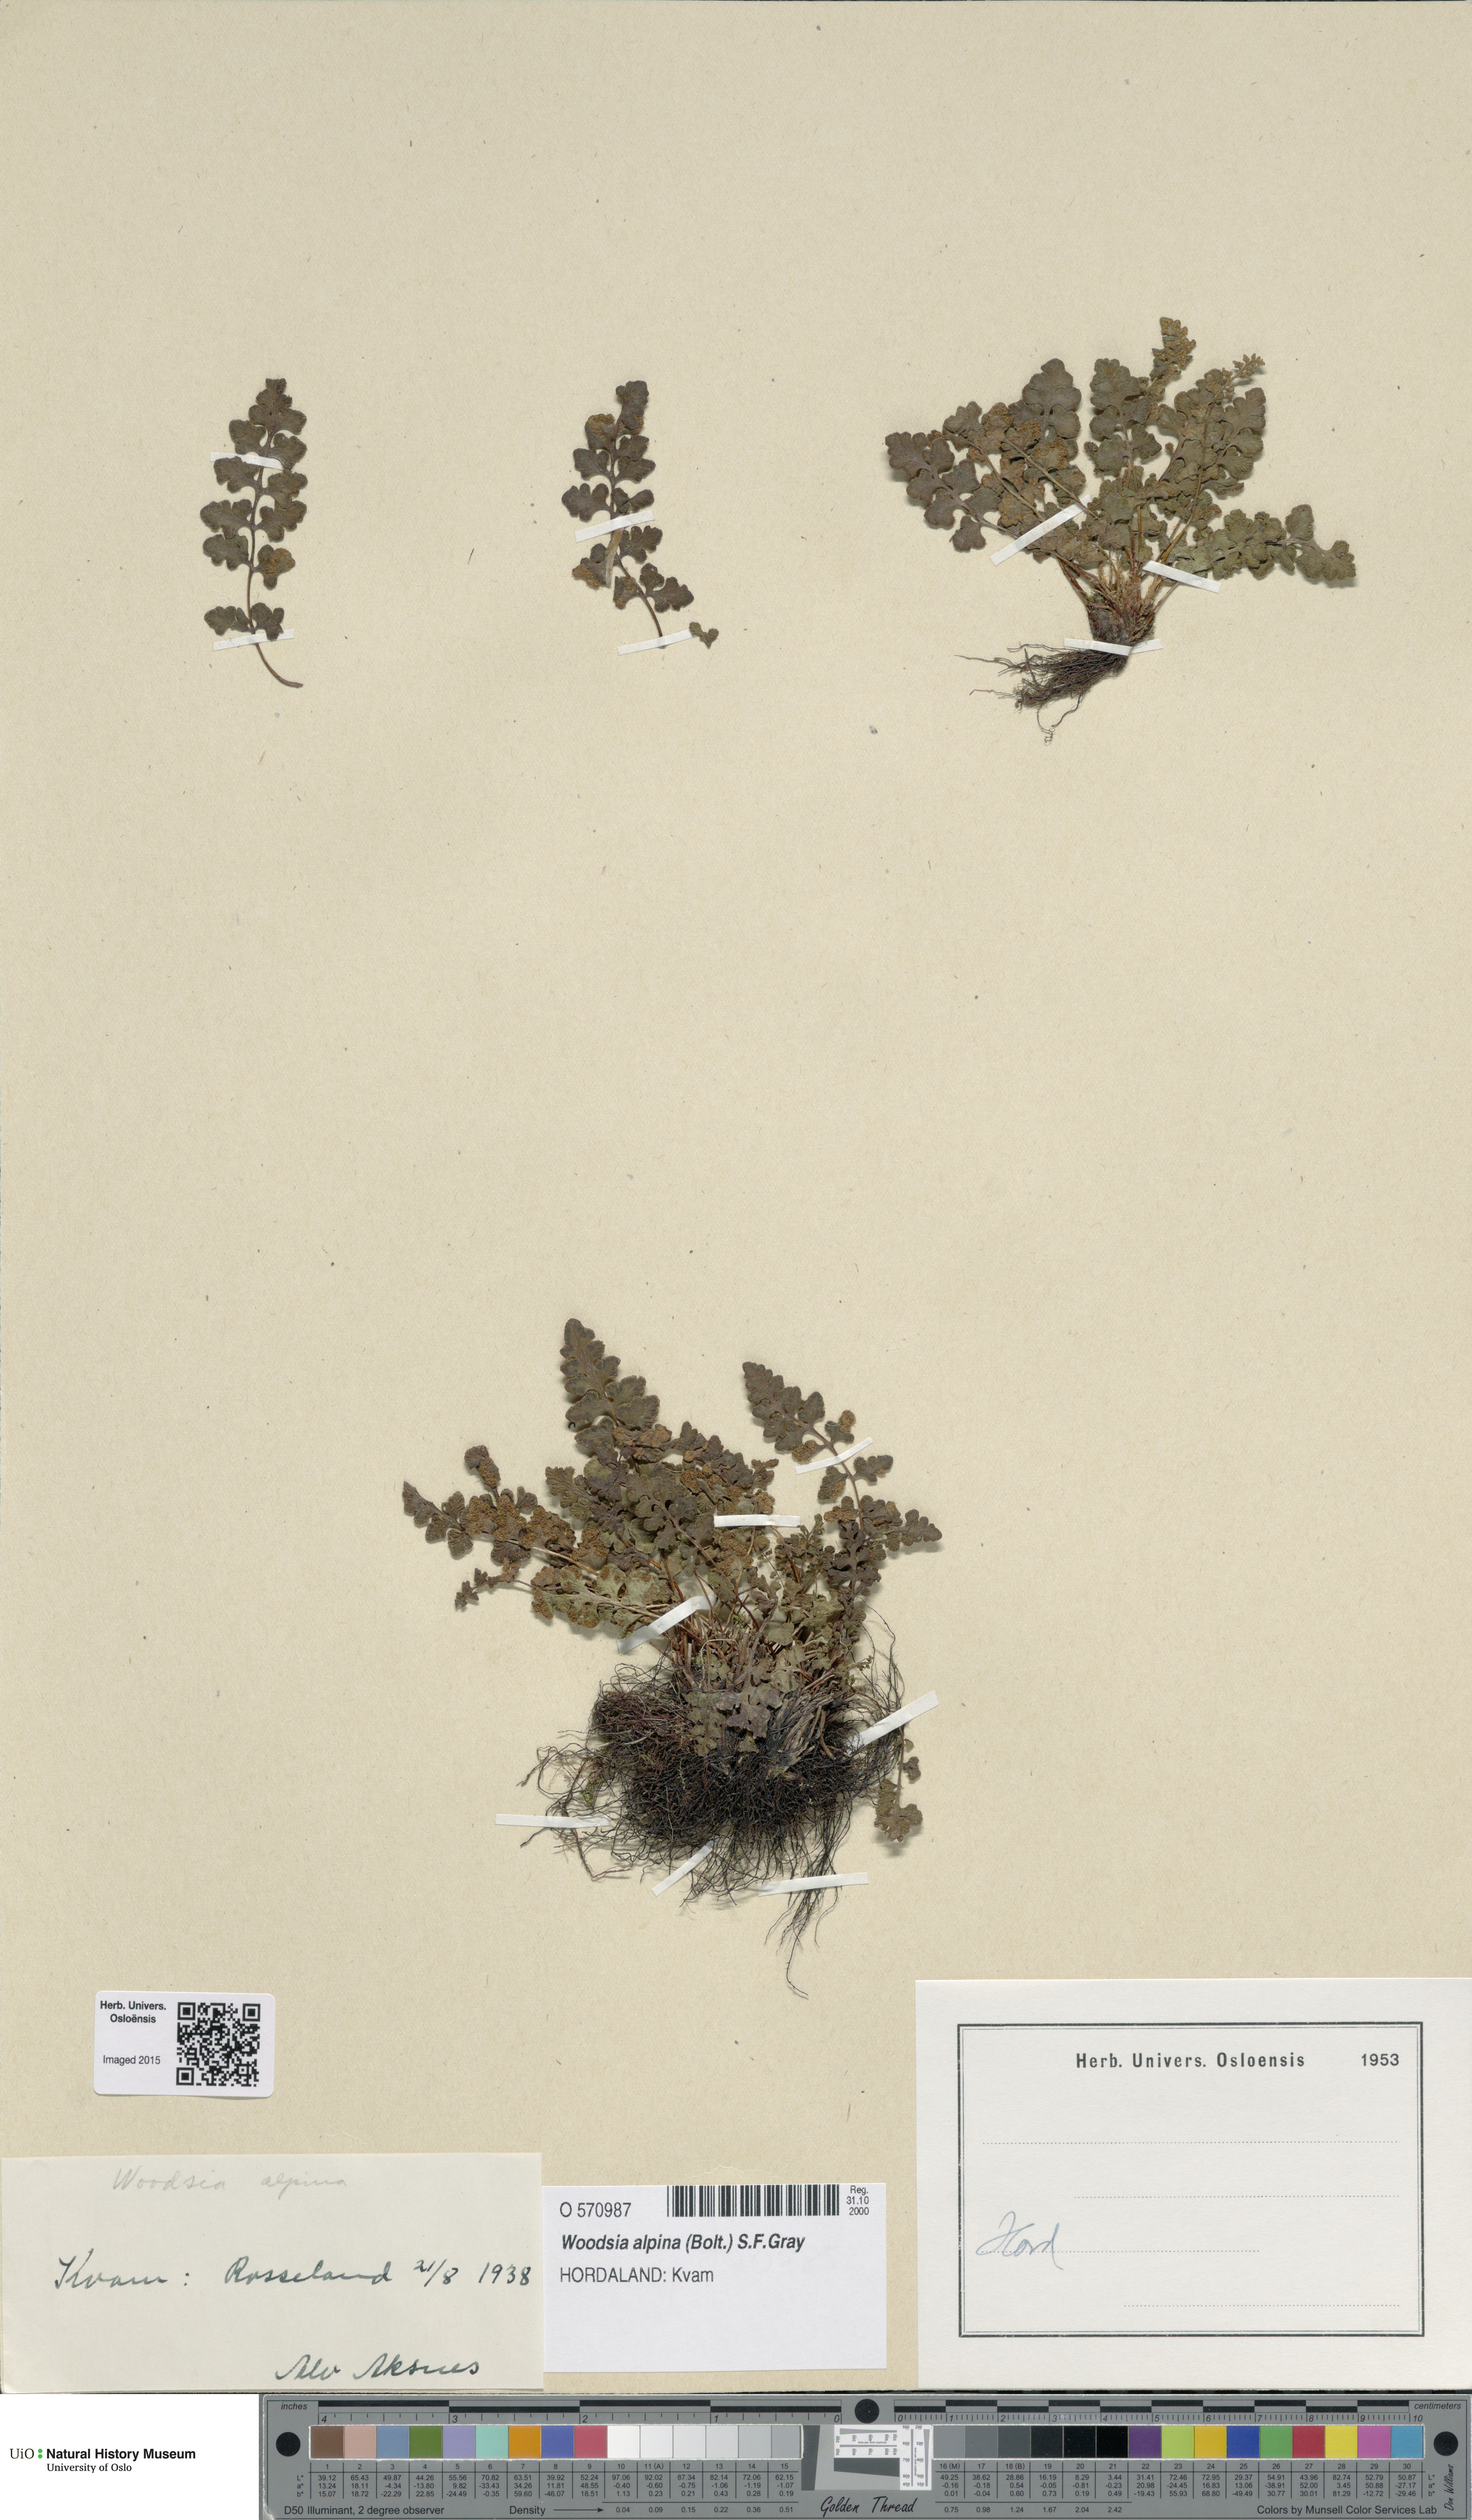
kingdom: Plantae
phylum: Tracheophyta
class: Polypodiopsida
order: Polypodiales
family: Woodsiaceae
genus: Woodsia
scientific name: Woodsia alpina
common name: Alpine woodsia
